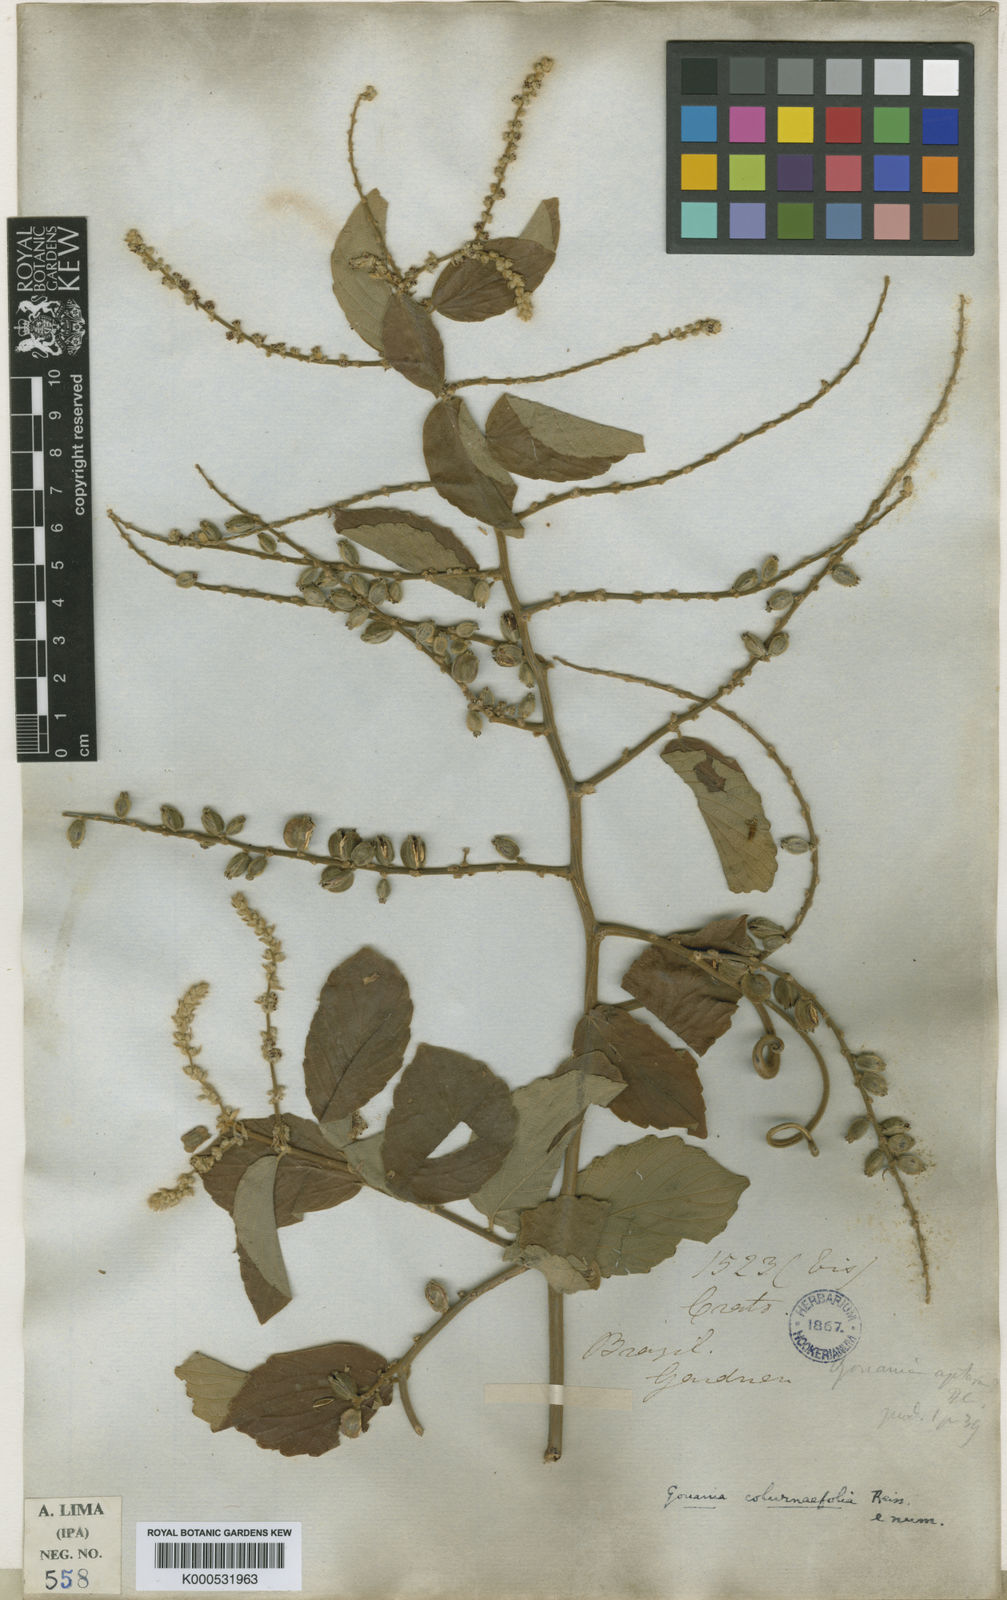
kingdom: Plantae
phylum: Tracheophyta
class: Magnoliopsida
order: Rosales
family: Rhamnaceae
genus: Gouania
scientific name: Gouania velutina
